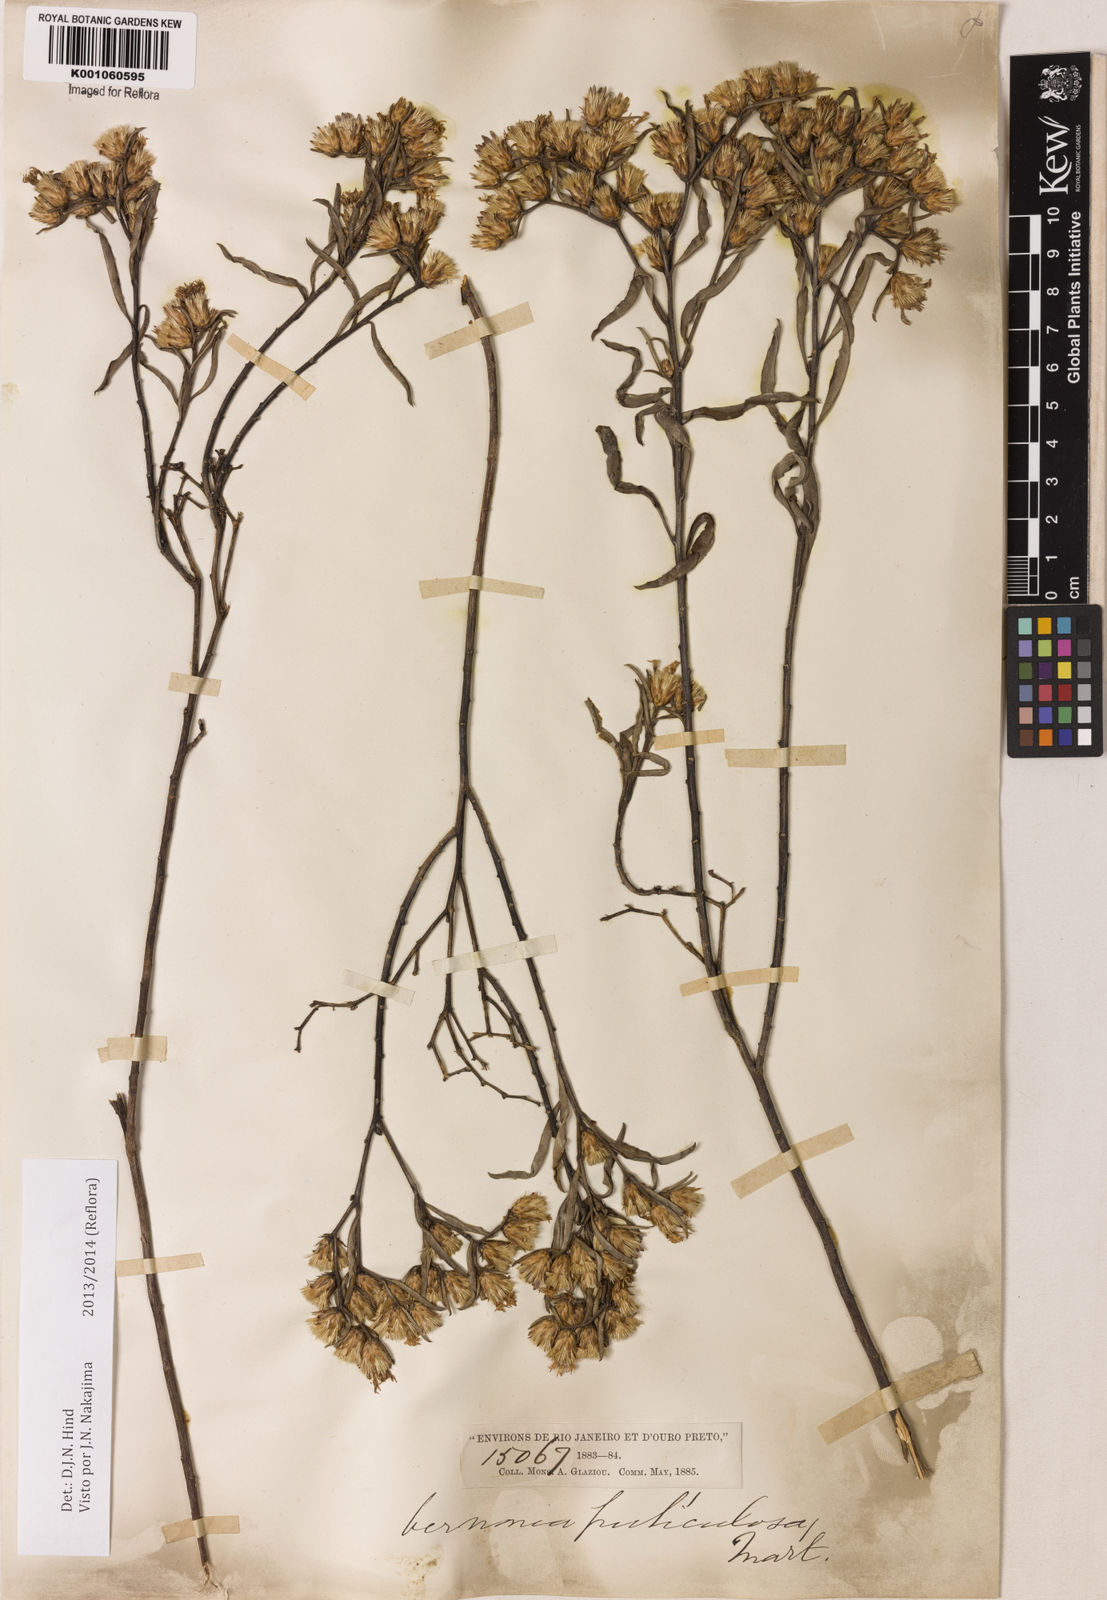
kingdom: Plantae
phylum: Tracheophyta
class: Magnoliopsida
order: Asterales
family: Asteraceae
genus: Lepidaploa
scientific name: Lepidaploa rufogrisea
